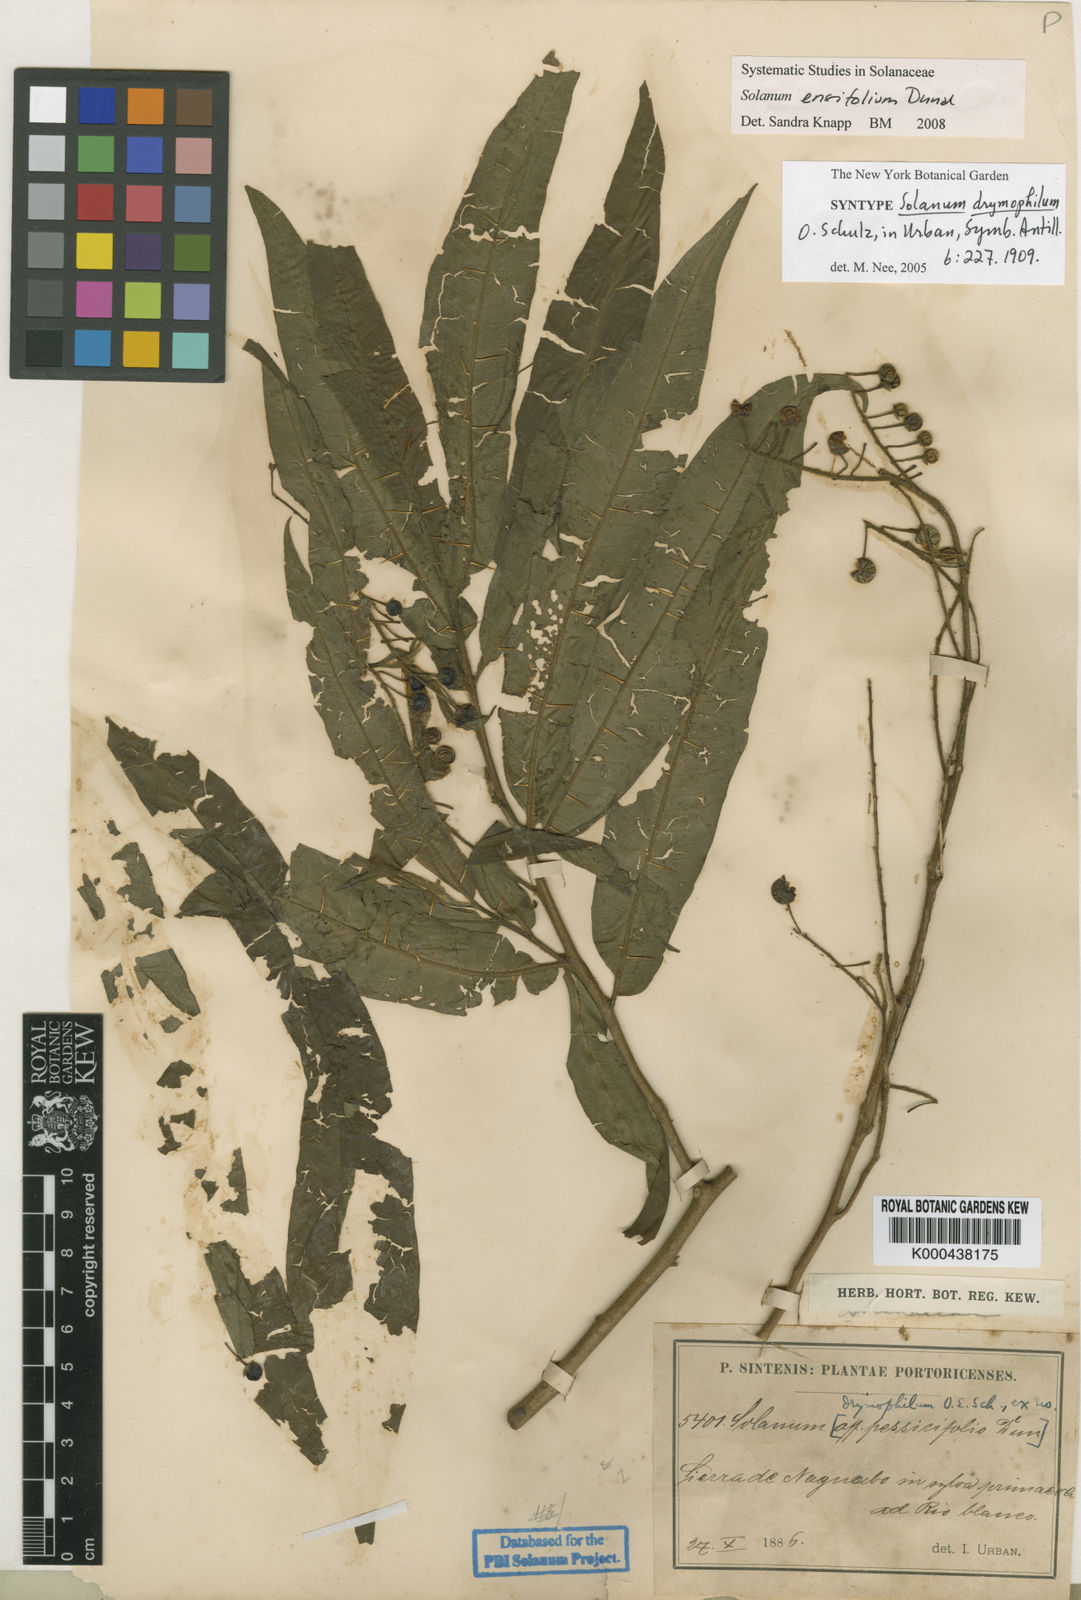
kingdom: Plantae
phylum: Tracheophyta
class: Magnoliopsida
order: Solanales
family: Solanaceae
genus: Solanum
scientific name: Solanum ensifolium
